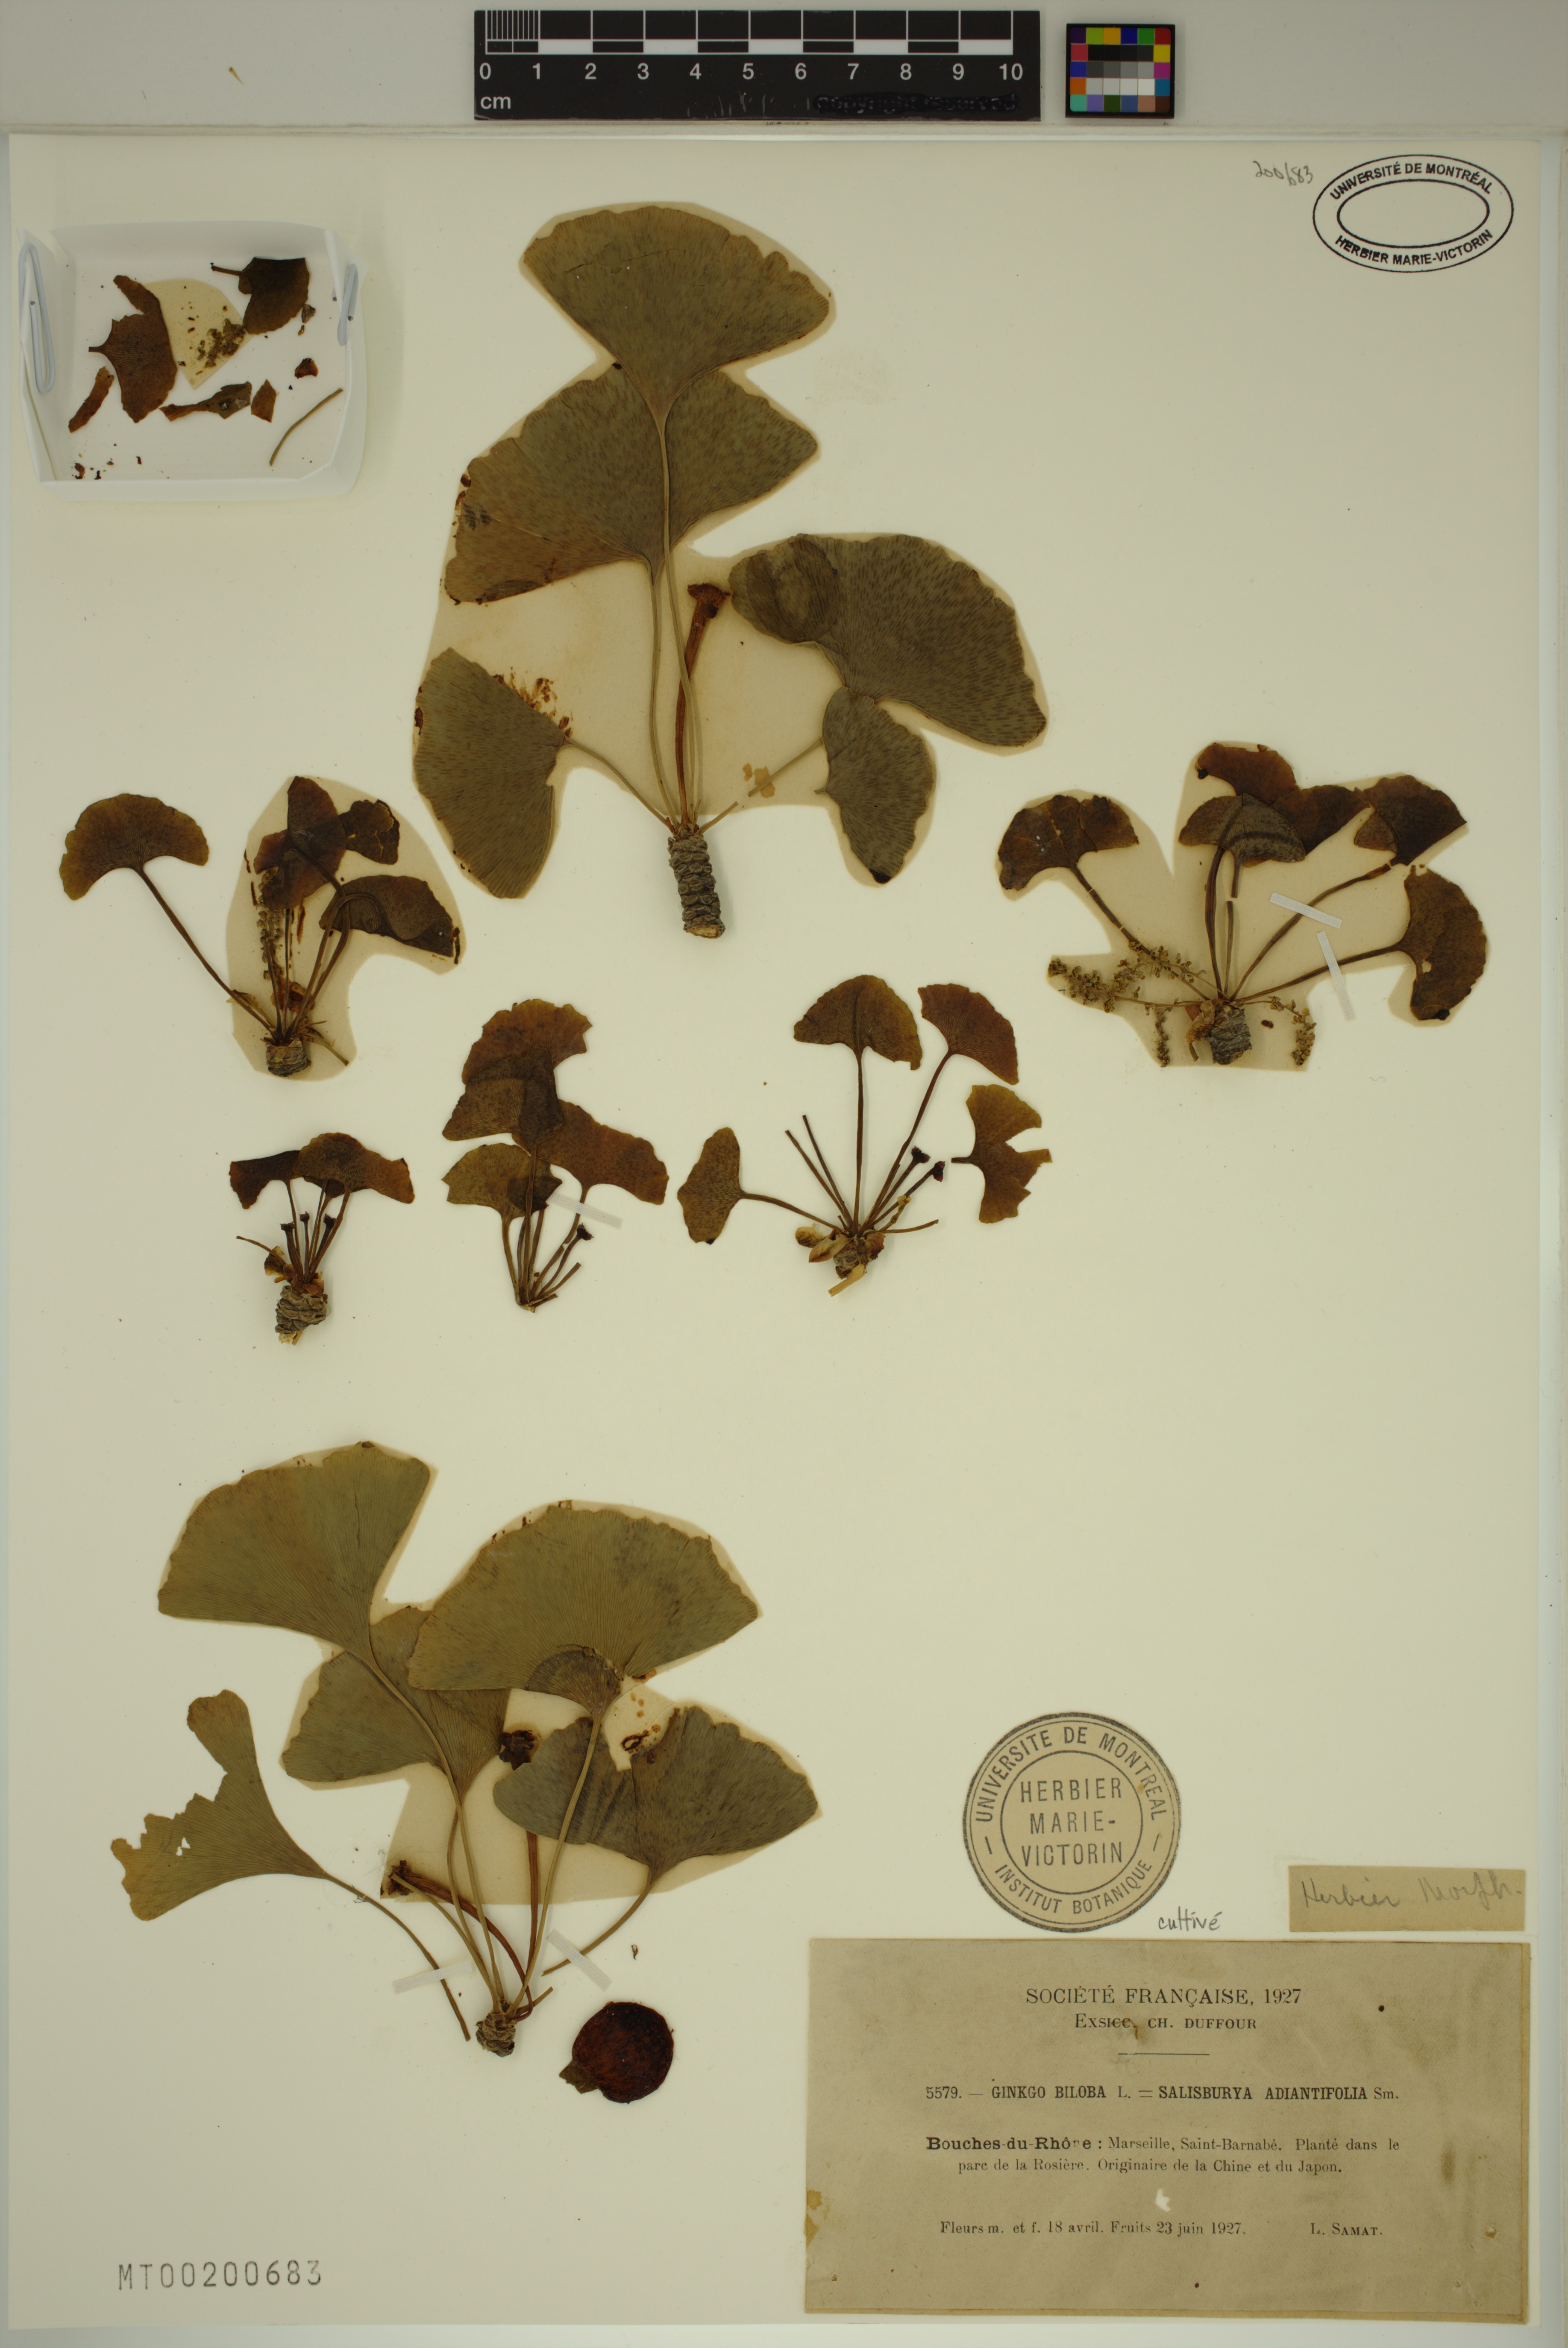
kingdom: Plantae
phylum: Tracheophyta
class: Ginkgoopsida
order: Ginkgoales
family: Ginkgoaceae
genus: Ginkgo
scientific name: Ginkgo biloba
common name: Ginkgo
